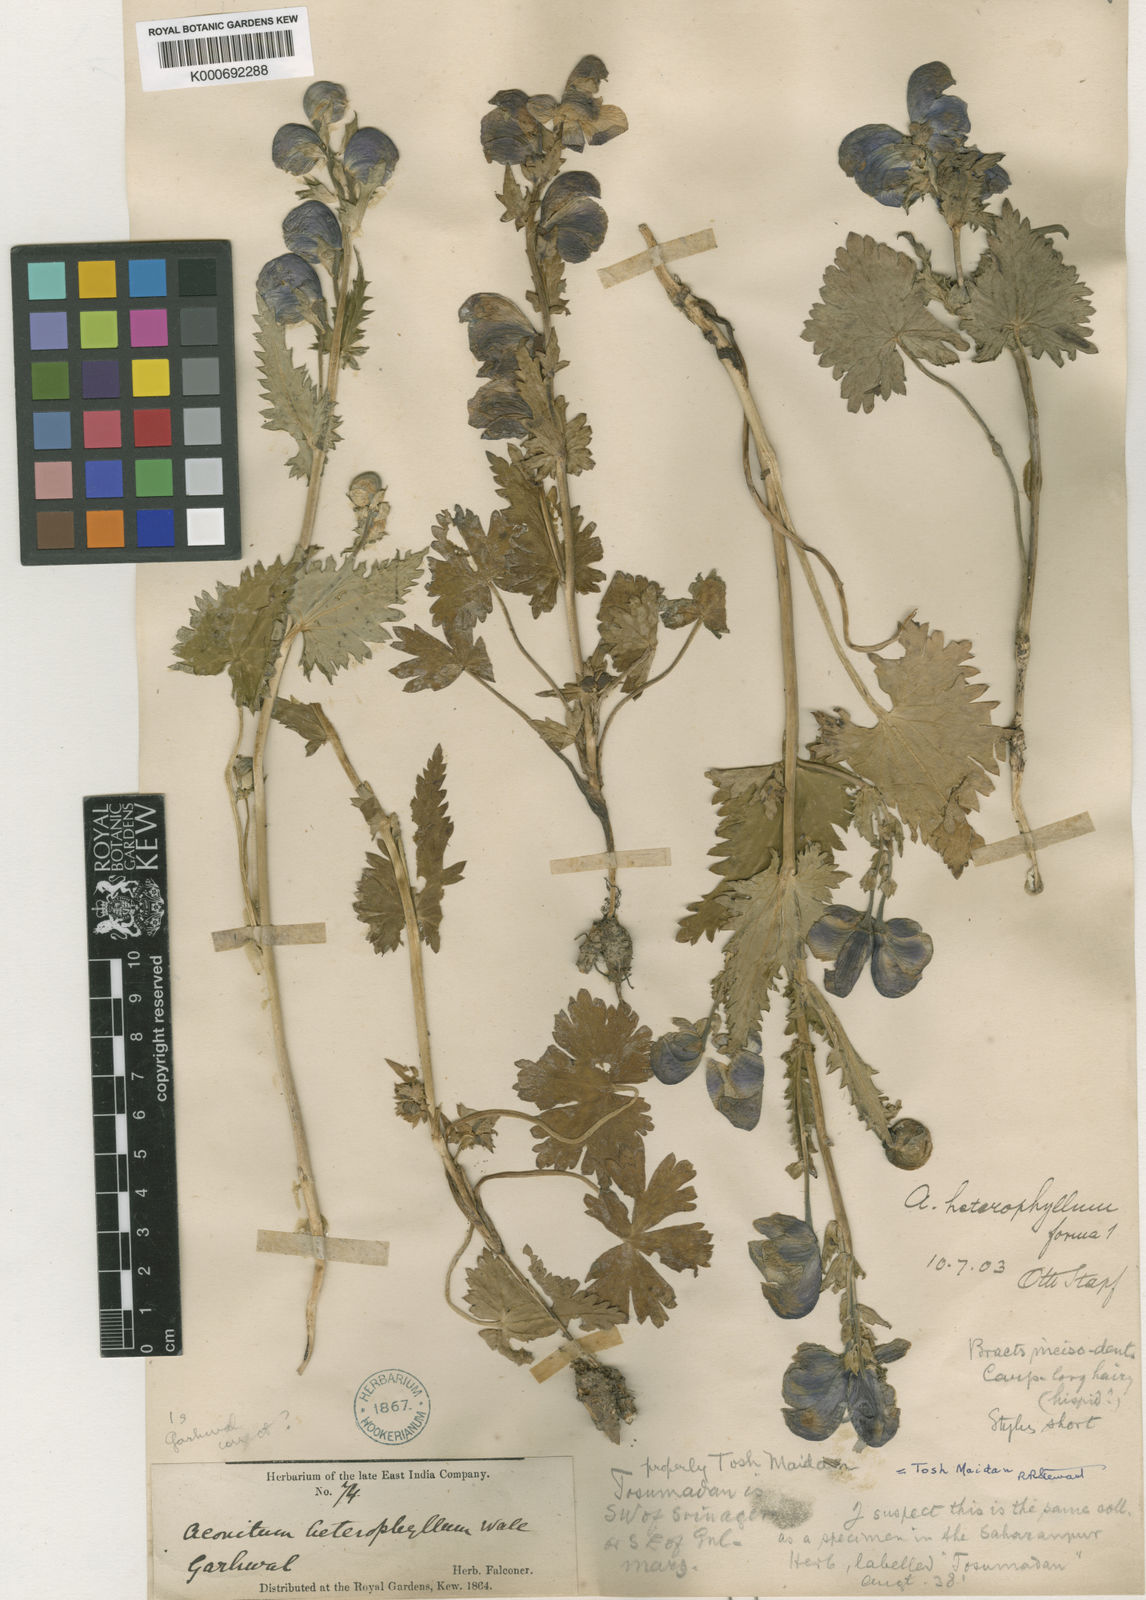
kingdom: Plantae
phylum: Tracheophyta
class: Magnoliopsida
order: Ranunculales
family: Ranunculaceae
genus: Aconitum
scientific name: Aconitum
